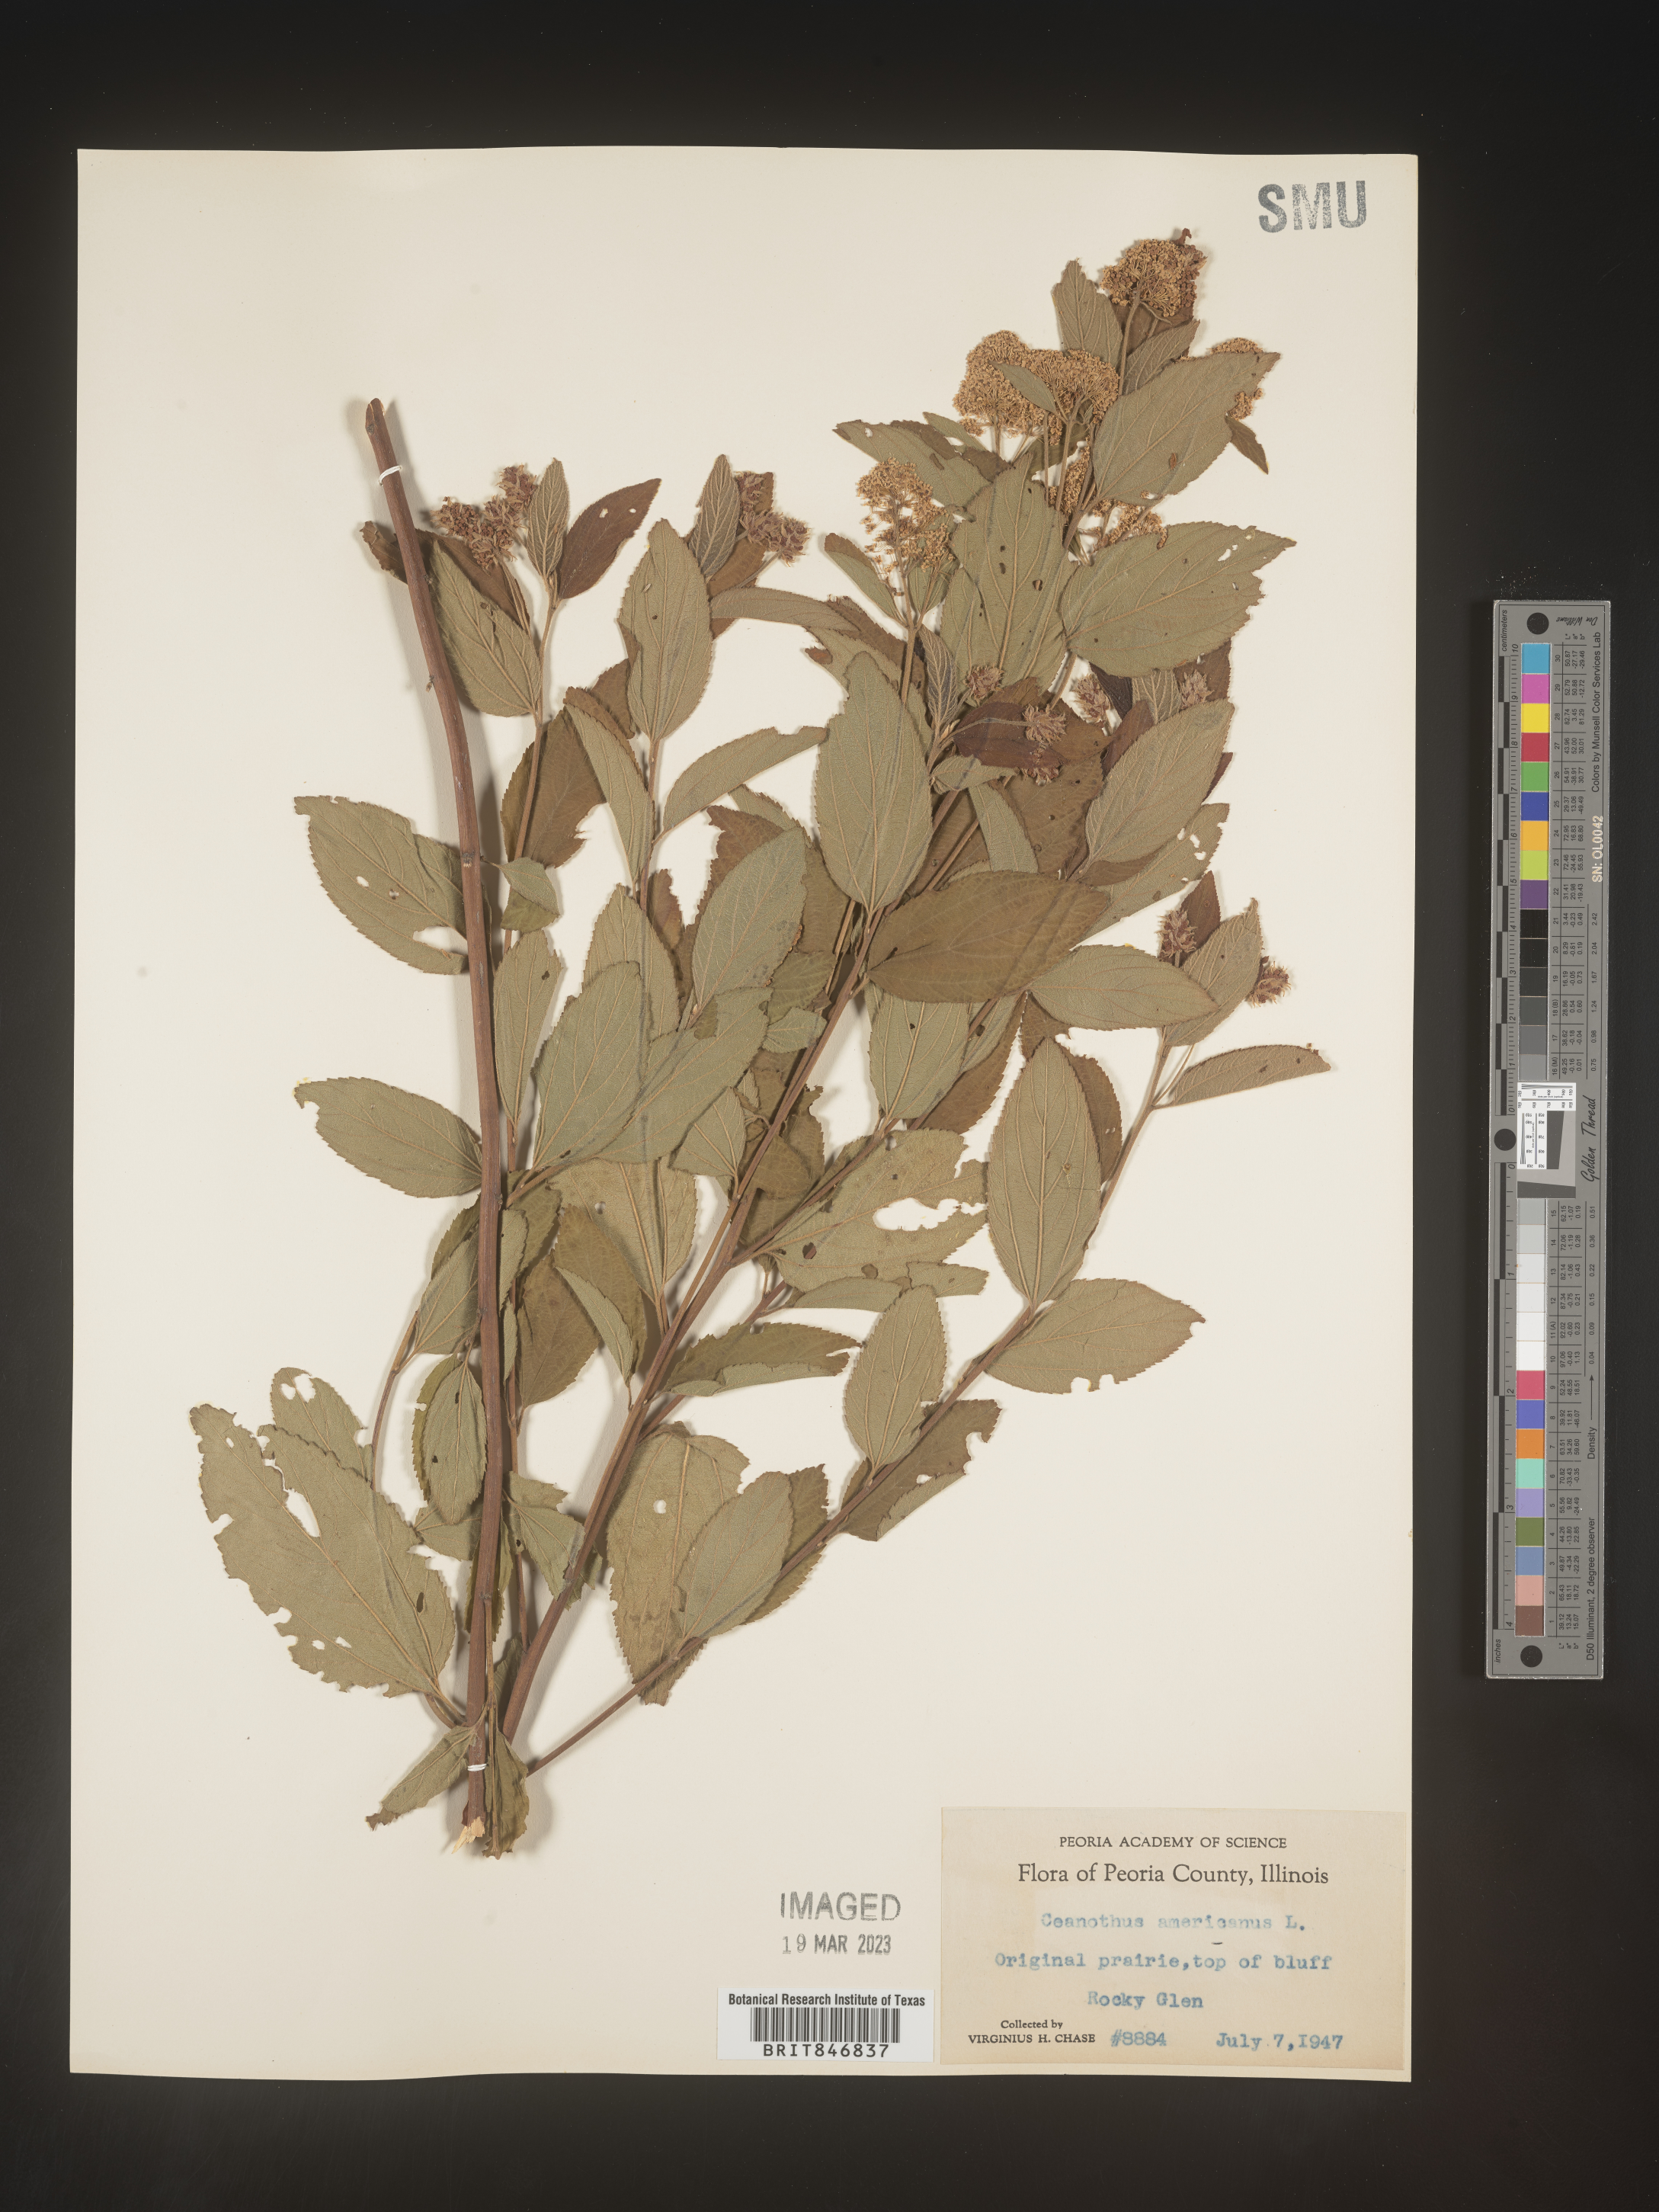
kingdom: Plantae
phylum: Tracheophyta
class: Magnoliopsida
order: Rosales
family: Rhamnaceae
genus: Ceanothus
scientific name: Ceanothus americanus
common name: Redroot
